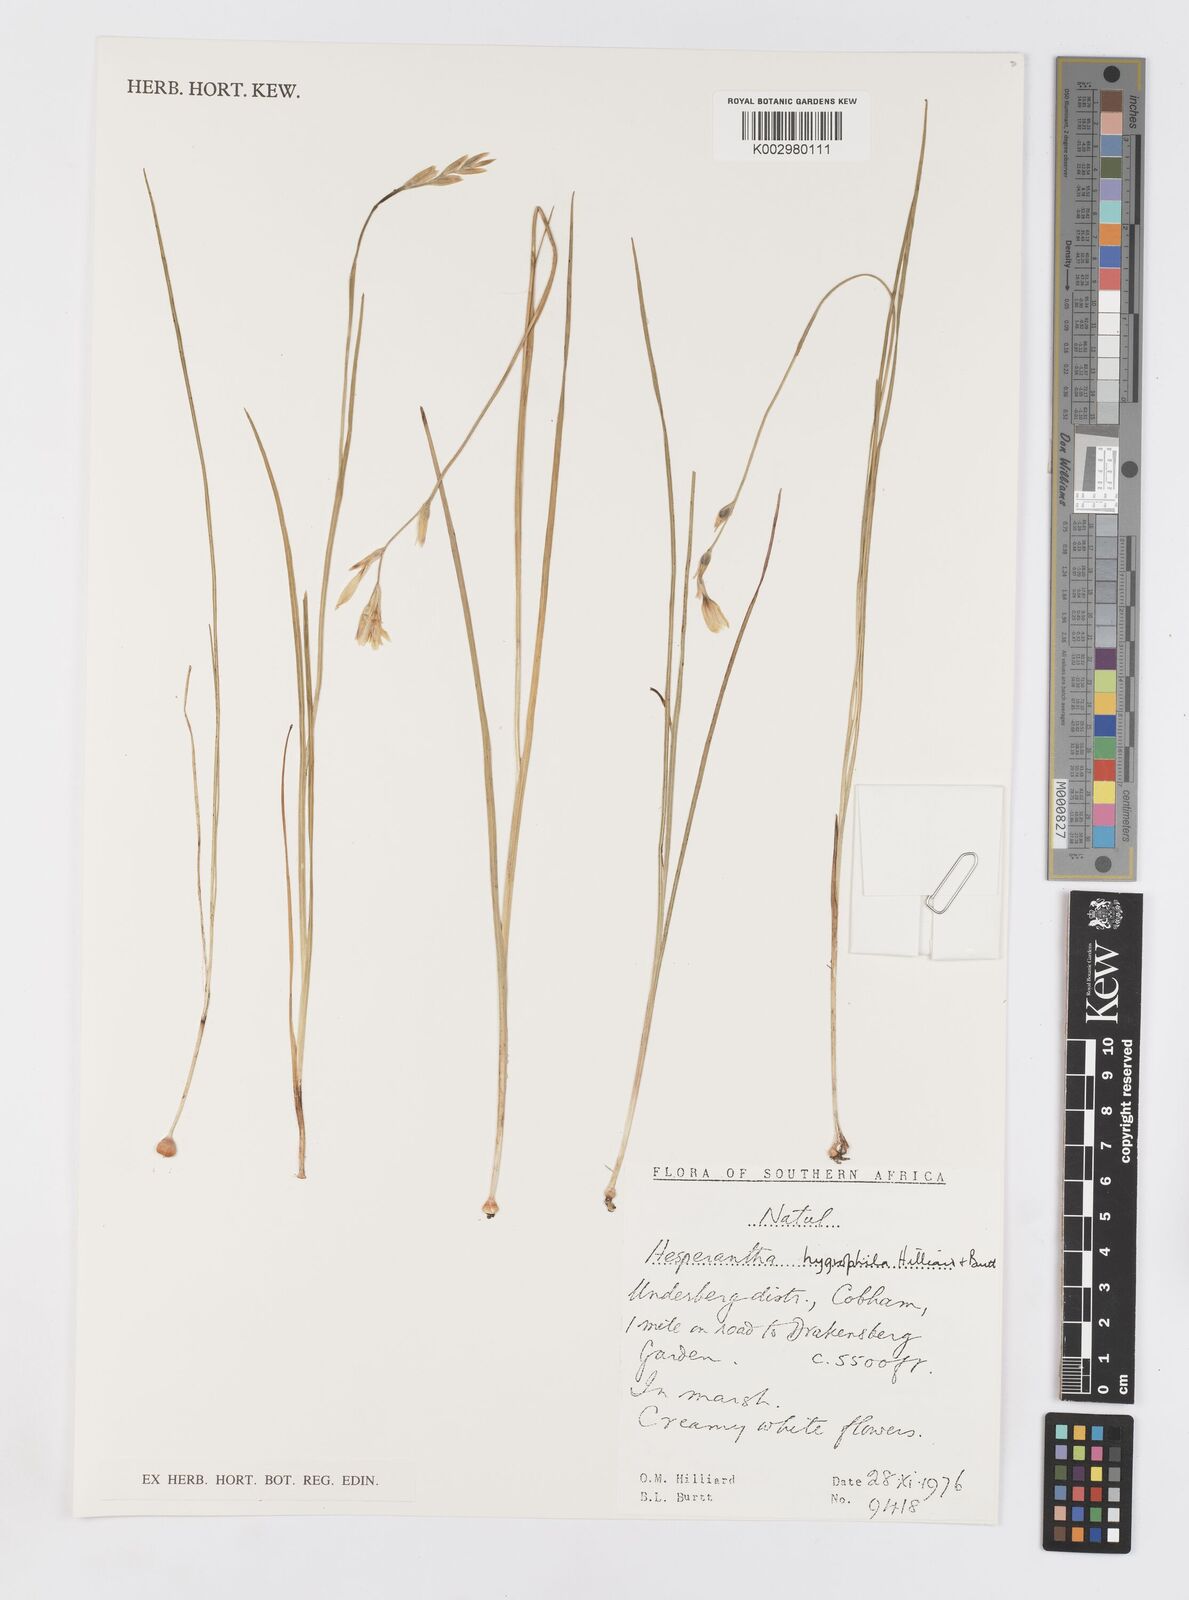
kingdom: Plantae
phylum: Tracheophyta
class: Liliopsida
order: Asparagales
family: Iridaceae
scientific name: Iridaceae
